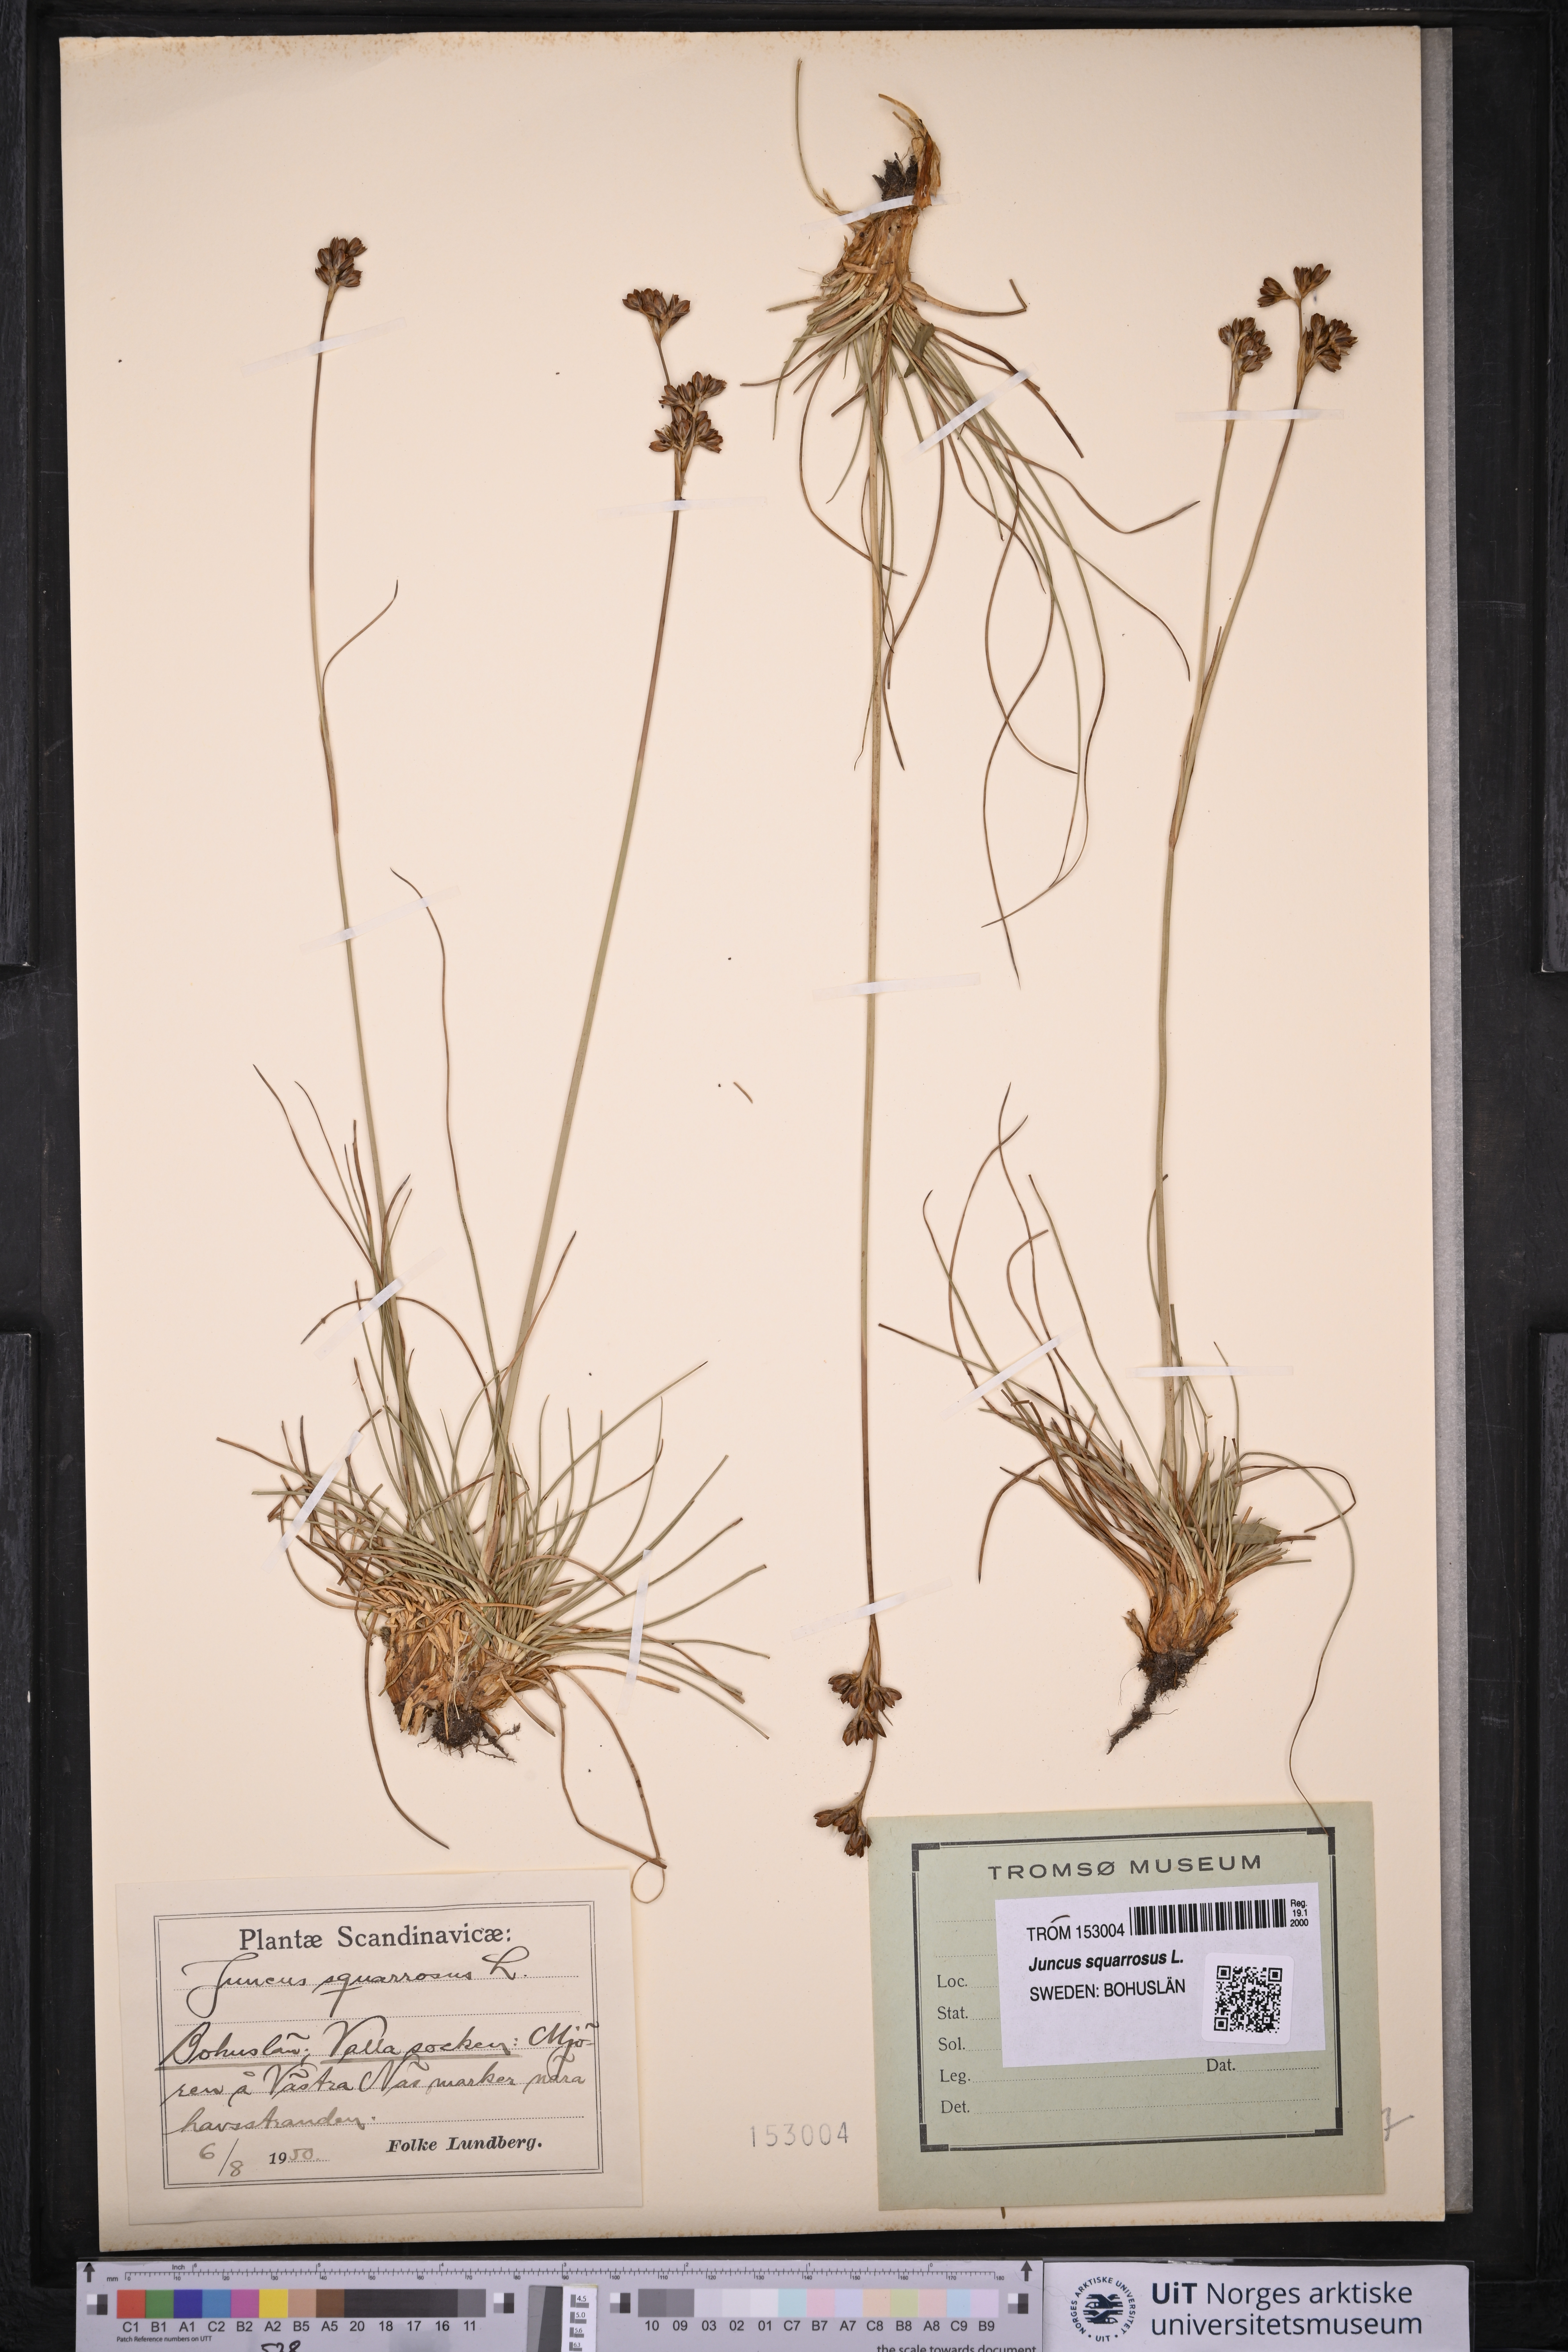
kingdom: Plantae
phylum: Tracheophyta
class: Liliopsida
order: Poales
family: Juncaceae
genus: Juncus
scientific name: Juncus squarrosus
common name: Heath rush
